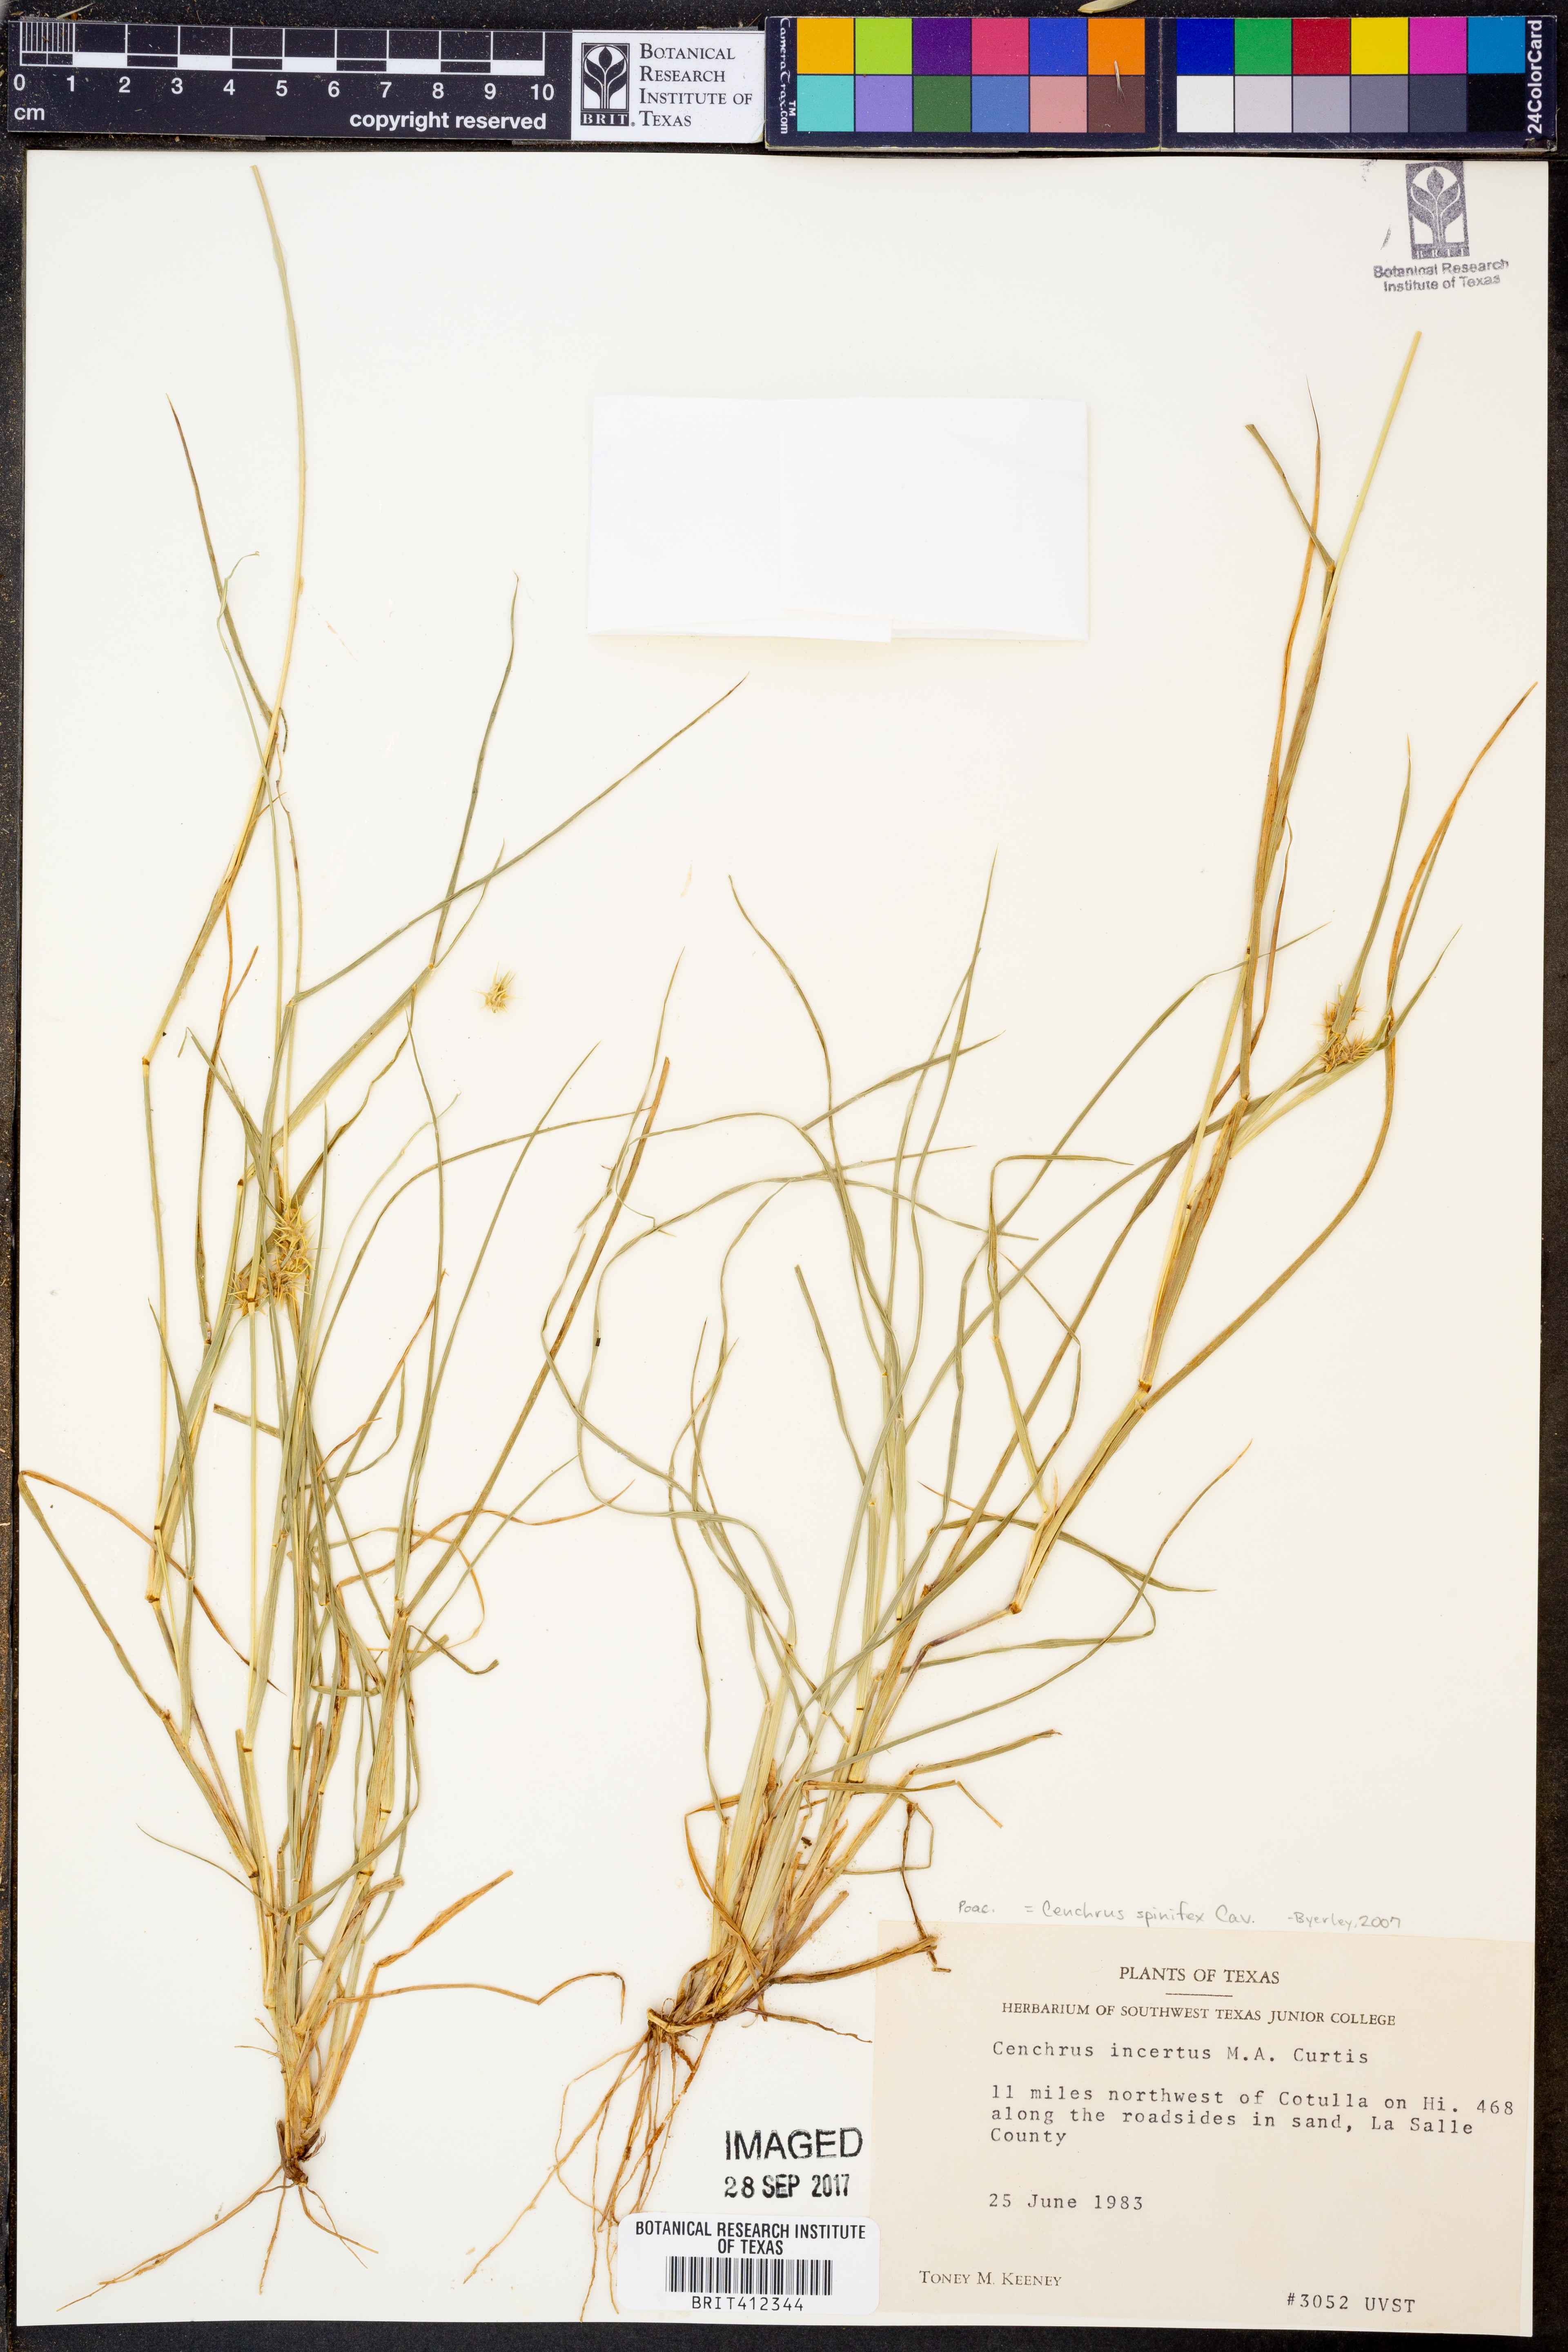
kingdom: Plantae
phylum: Tracheophyta
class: Liliopsida
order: Poales
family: Poaceae
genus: Cenchrus
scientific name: Cenchrus spinifex
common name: Coast sandbur
